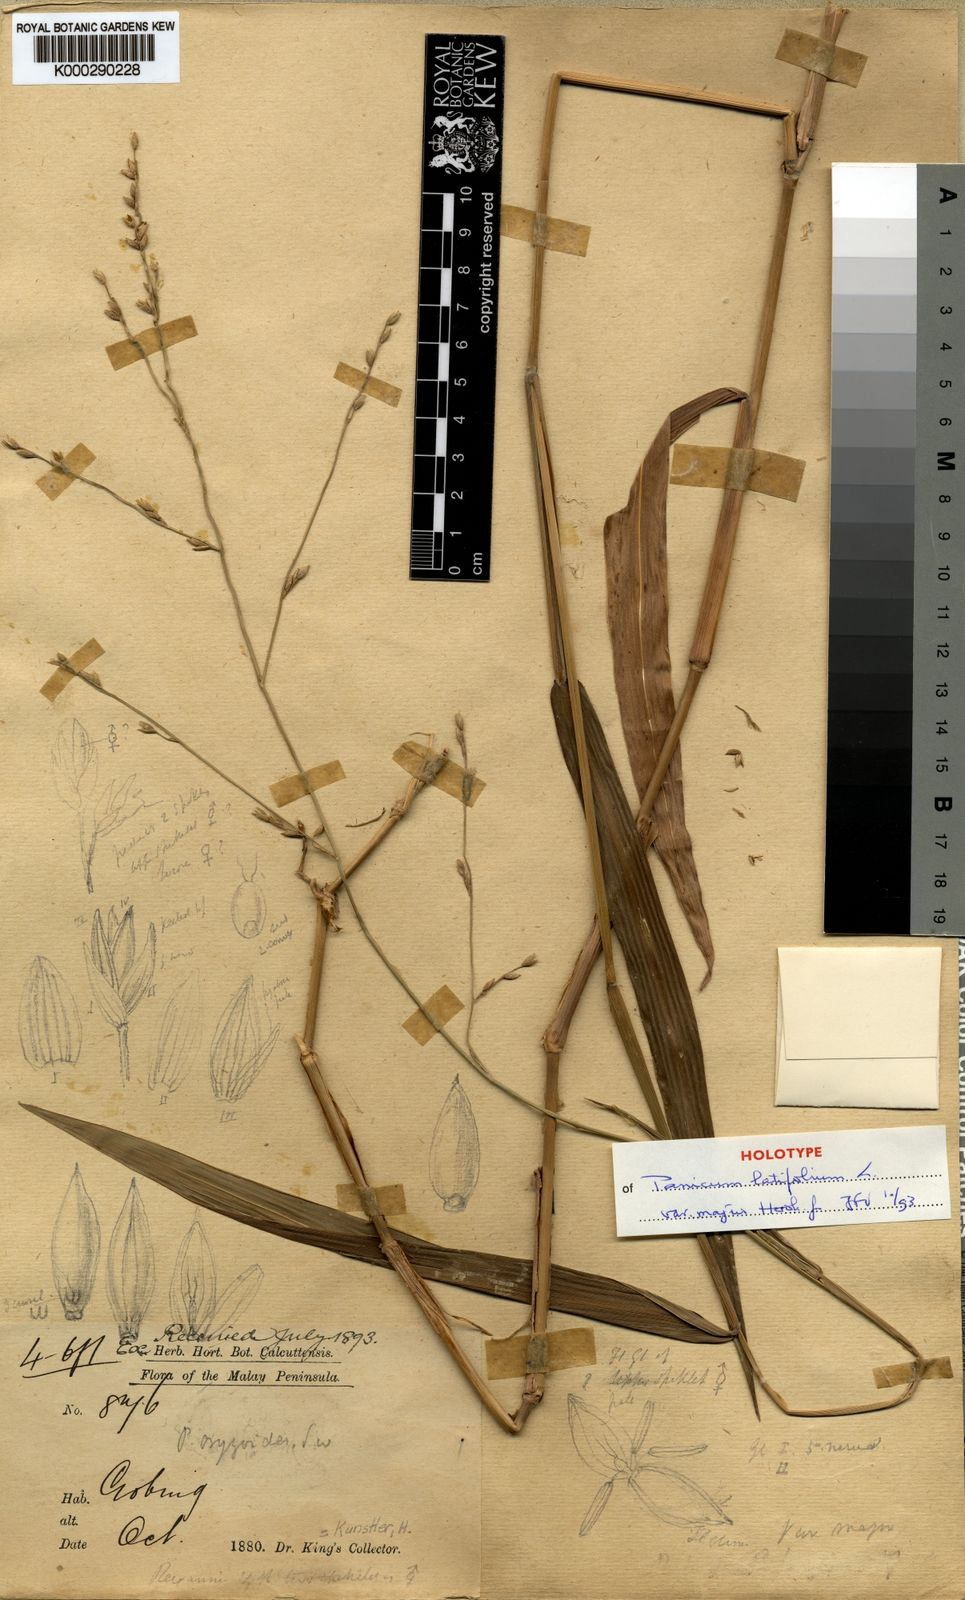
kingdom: Plantae
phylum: Tracheophyta
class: Liliopsida
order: Poales
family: Poaceae
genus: Acroceras
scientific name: Acroceras tonkinense
